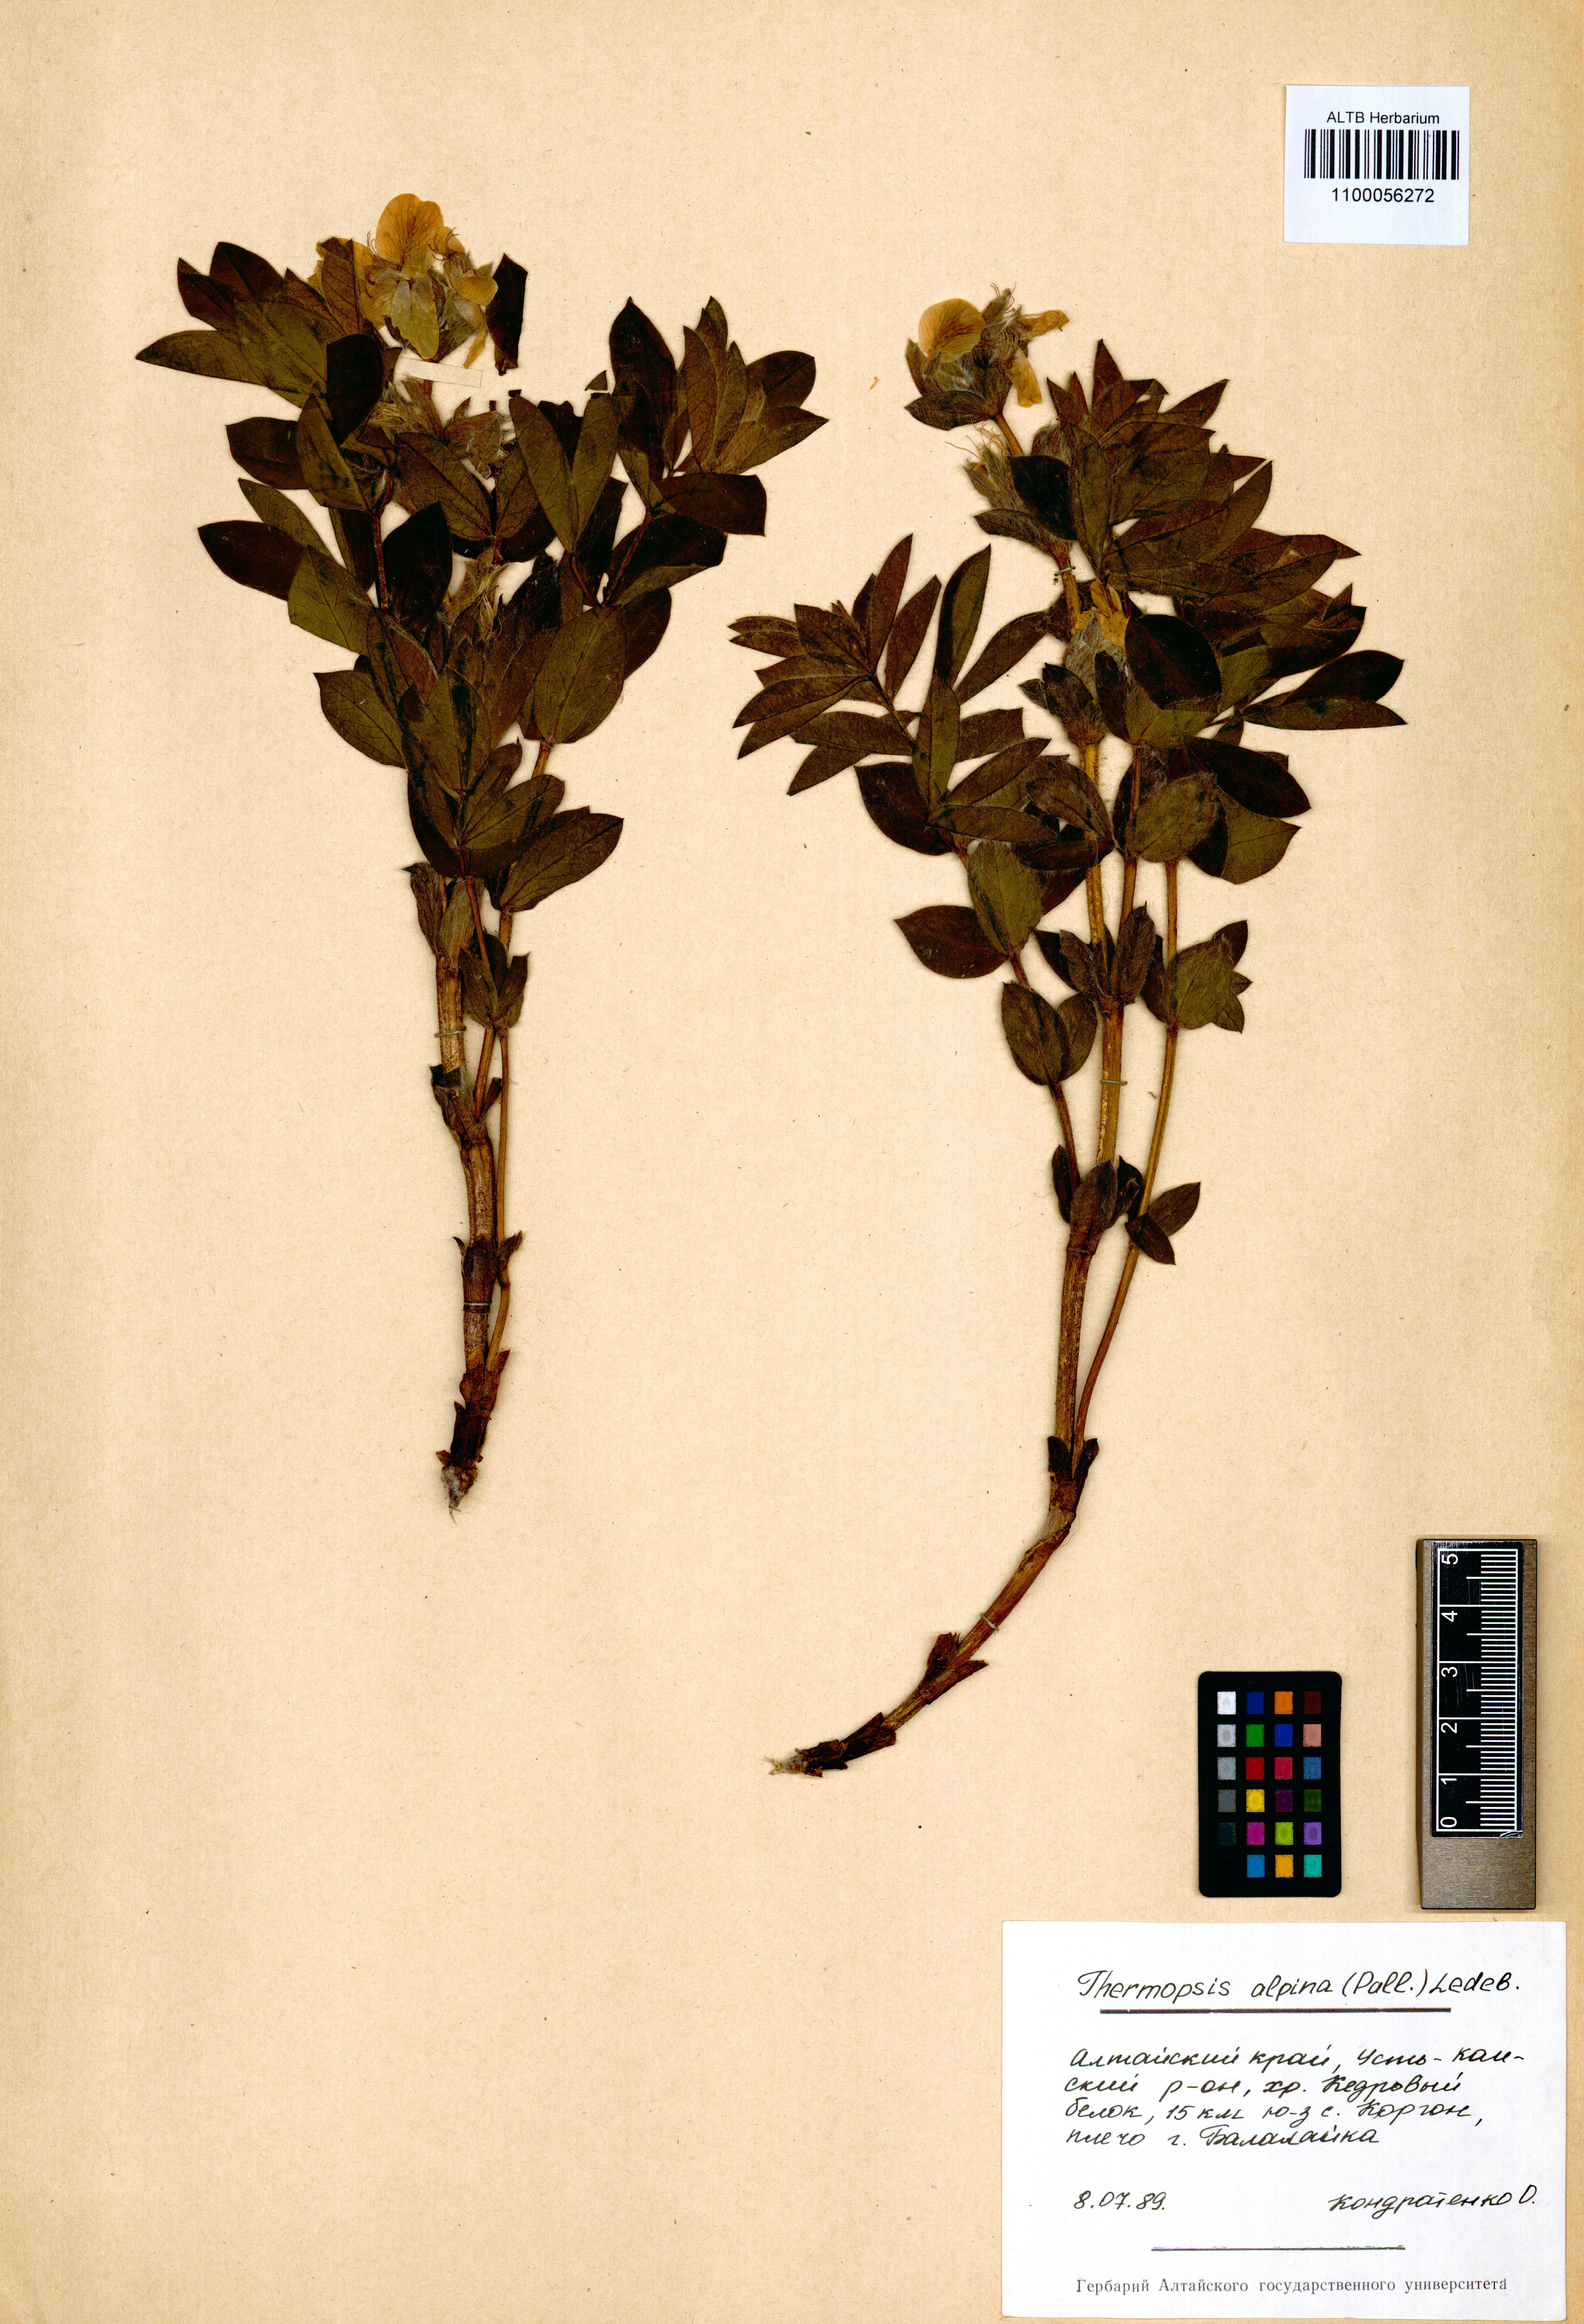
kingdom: Plantae
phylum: Tracheophyta
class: Magnoliopsida
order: Fabales
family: Fabaceae
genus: Thermopsis
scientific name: Thermopsis alpina
